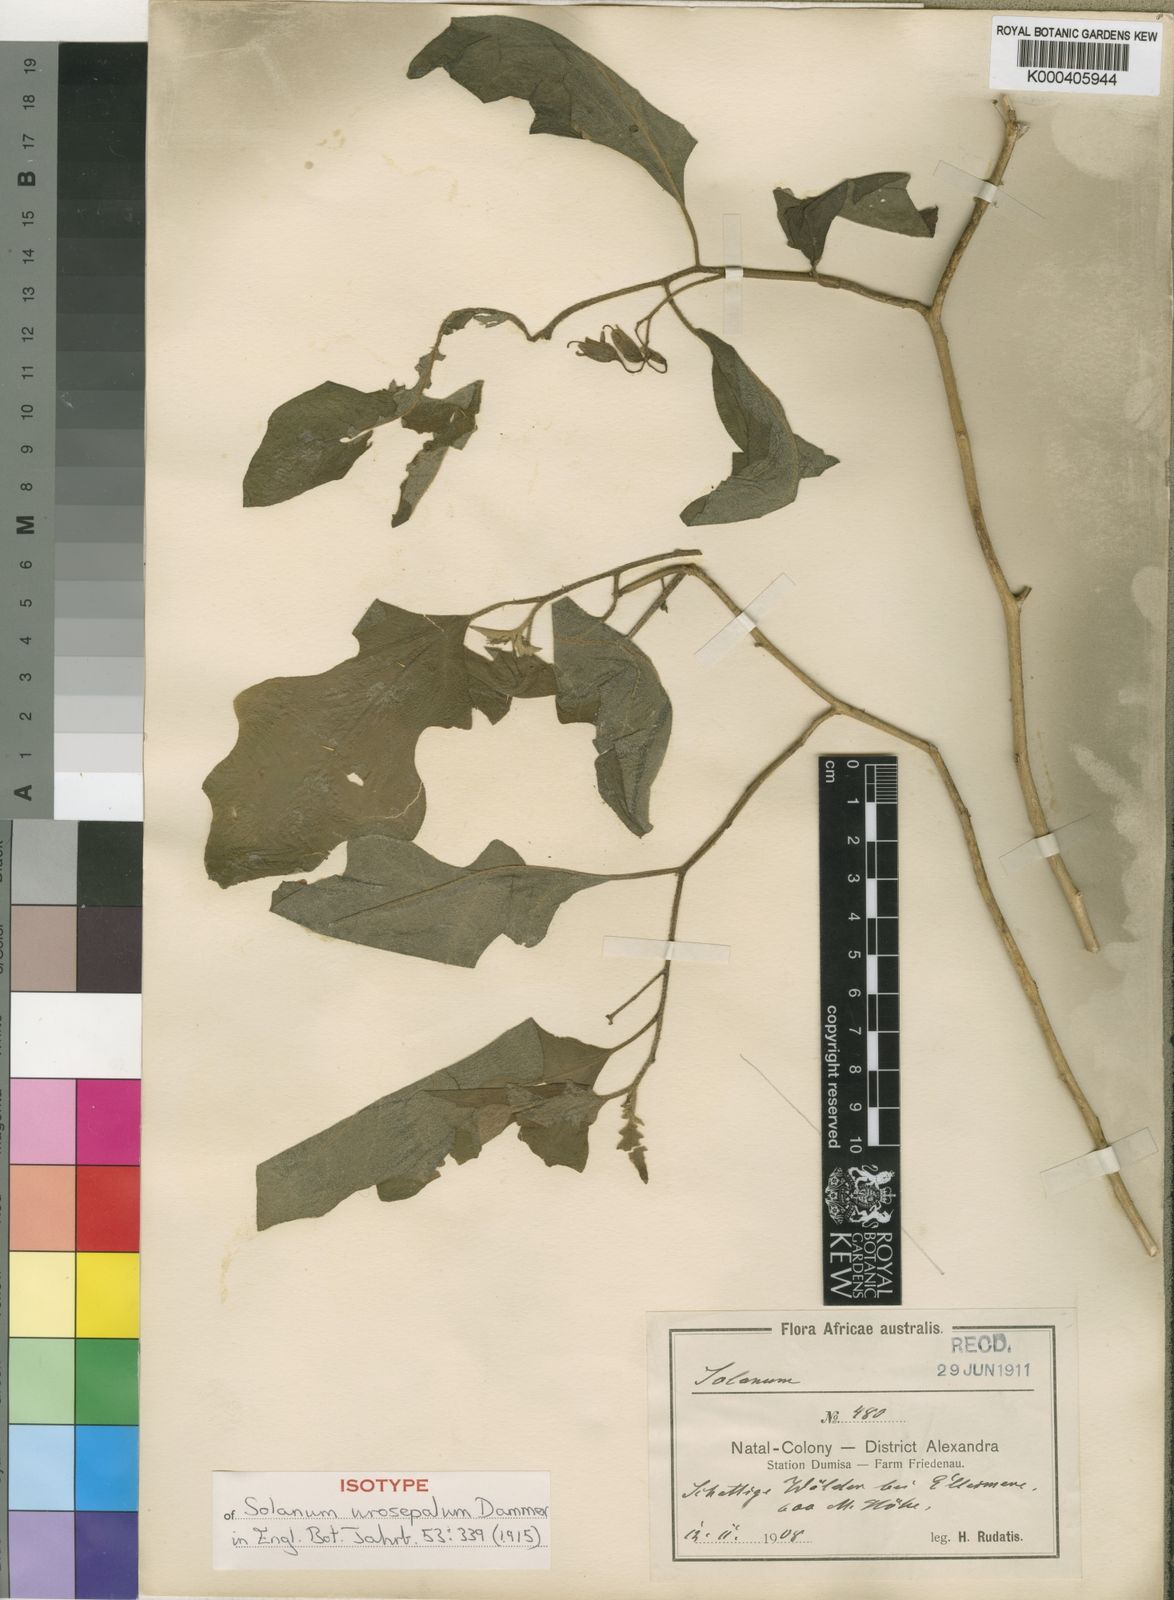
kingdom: Plantae
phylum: Tracheophyta
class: Magnoliopsida
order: Solanales
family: Solanaceae
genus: Solanum
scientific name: Solanum anguivi
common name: Forest bitterberry
